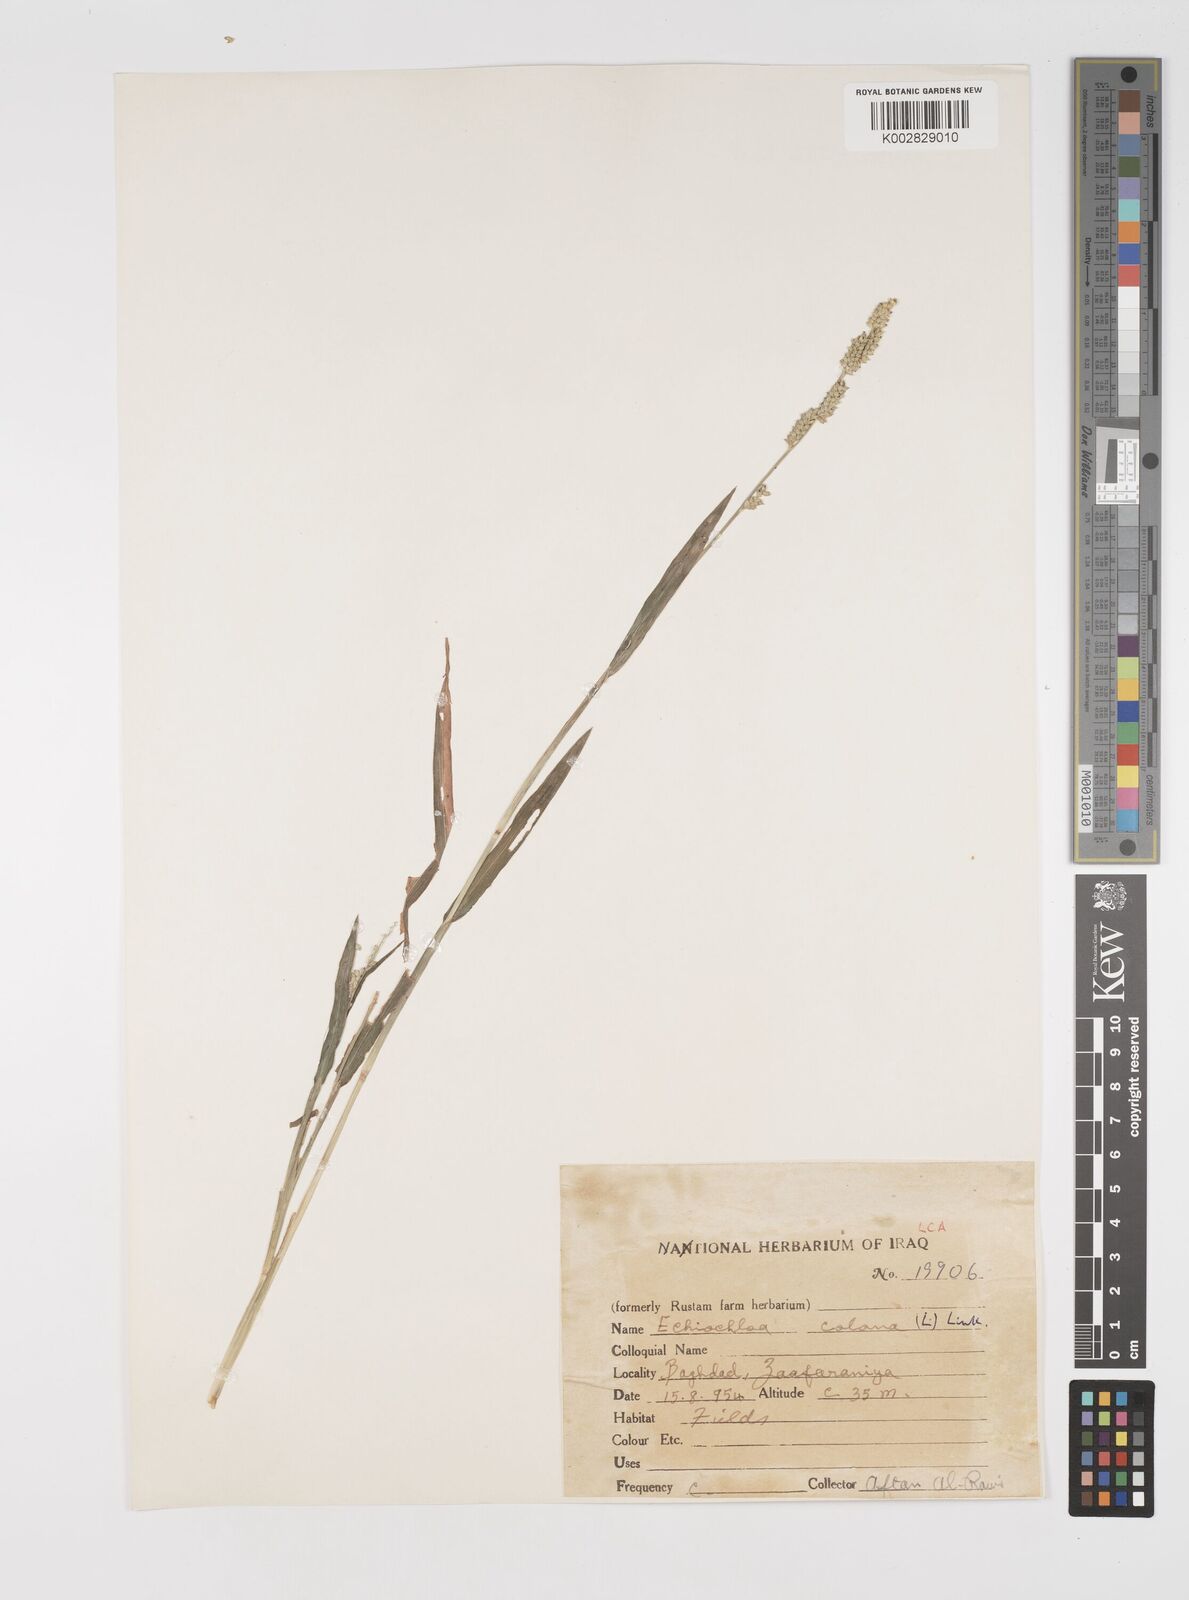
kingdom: Plantae
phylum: Tracheophyta
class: Liliopsida
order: Poales
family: Poaceae
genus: Echinochloa
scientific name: Echinochloa colonum
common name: Jungle rice
